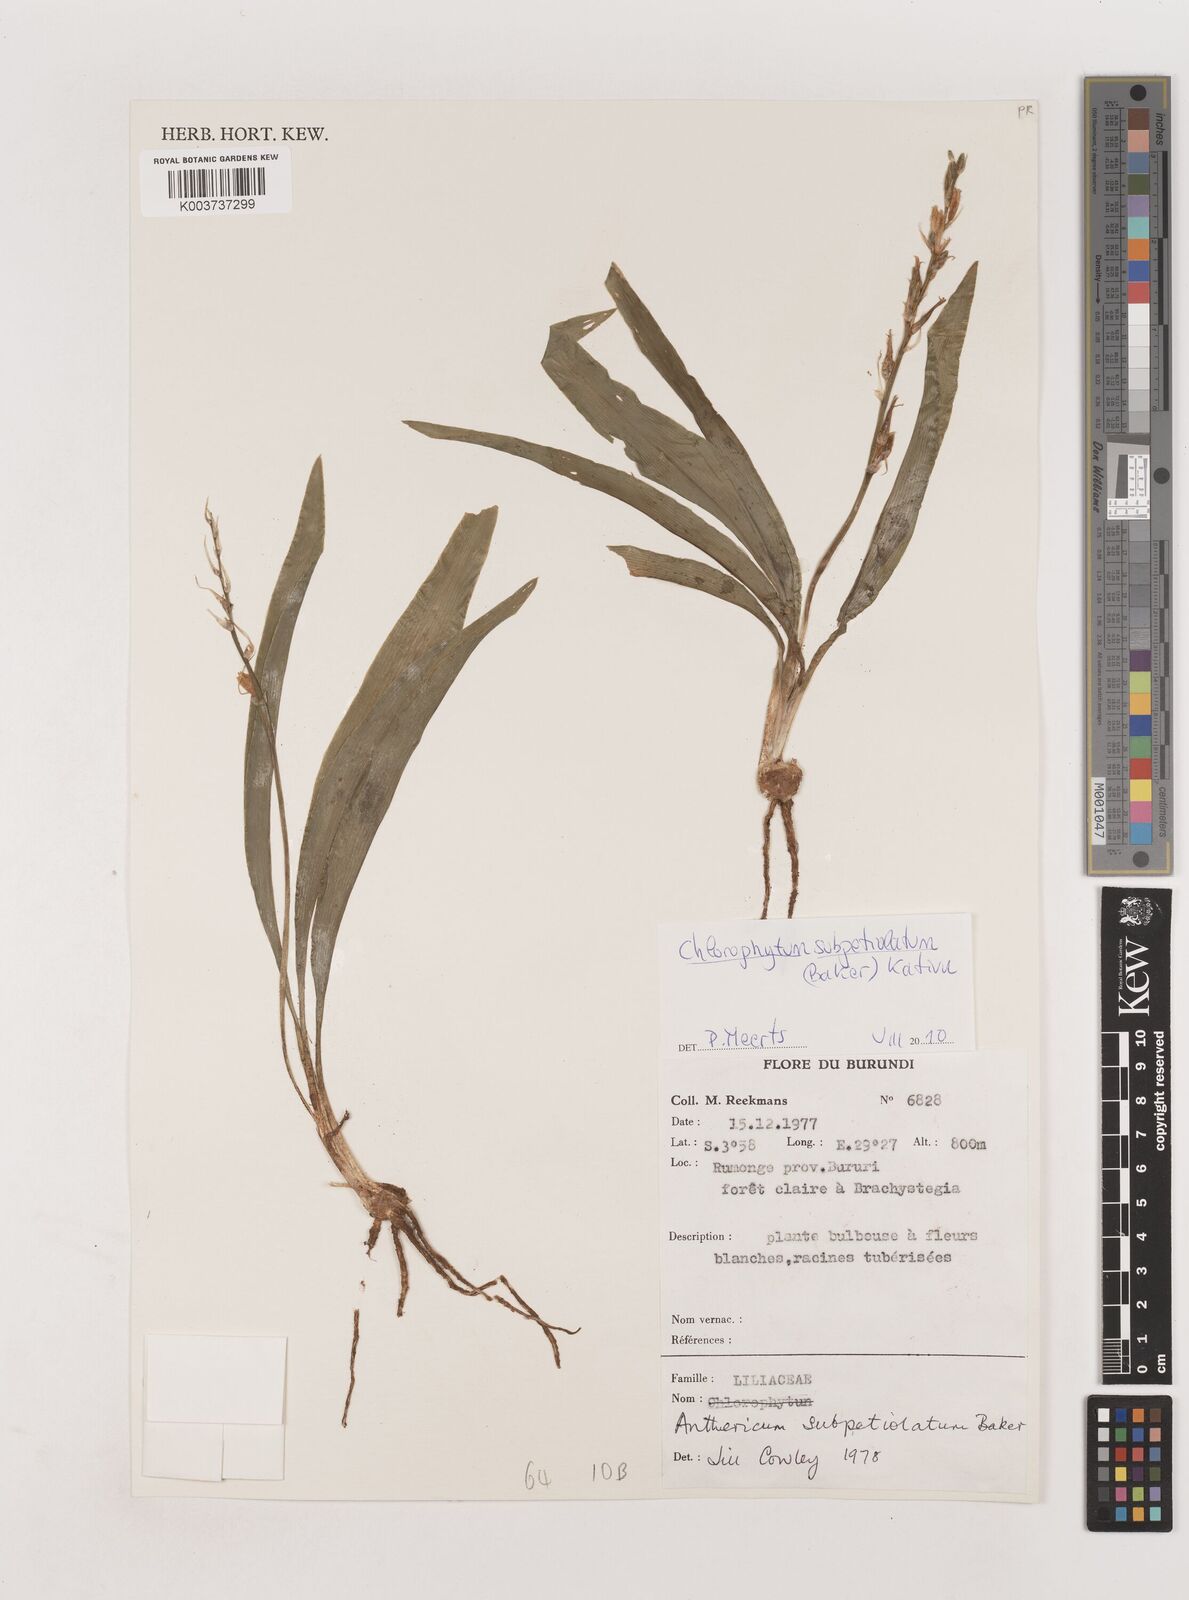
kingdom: Plantae
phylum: Tracheophyta
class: Liliopsida
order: Asparagales
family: Asparagaceae
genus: Chlorophytum
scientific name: Chlorophytum subpetiolatum
